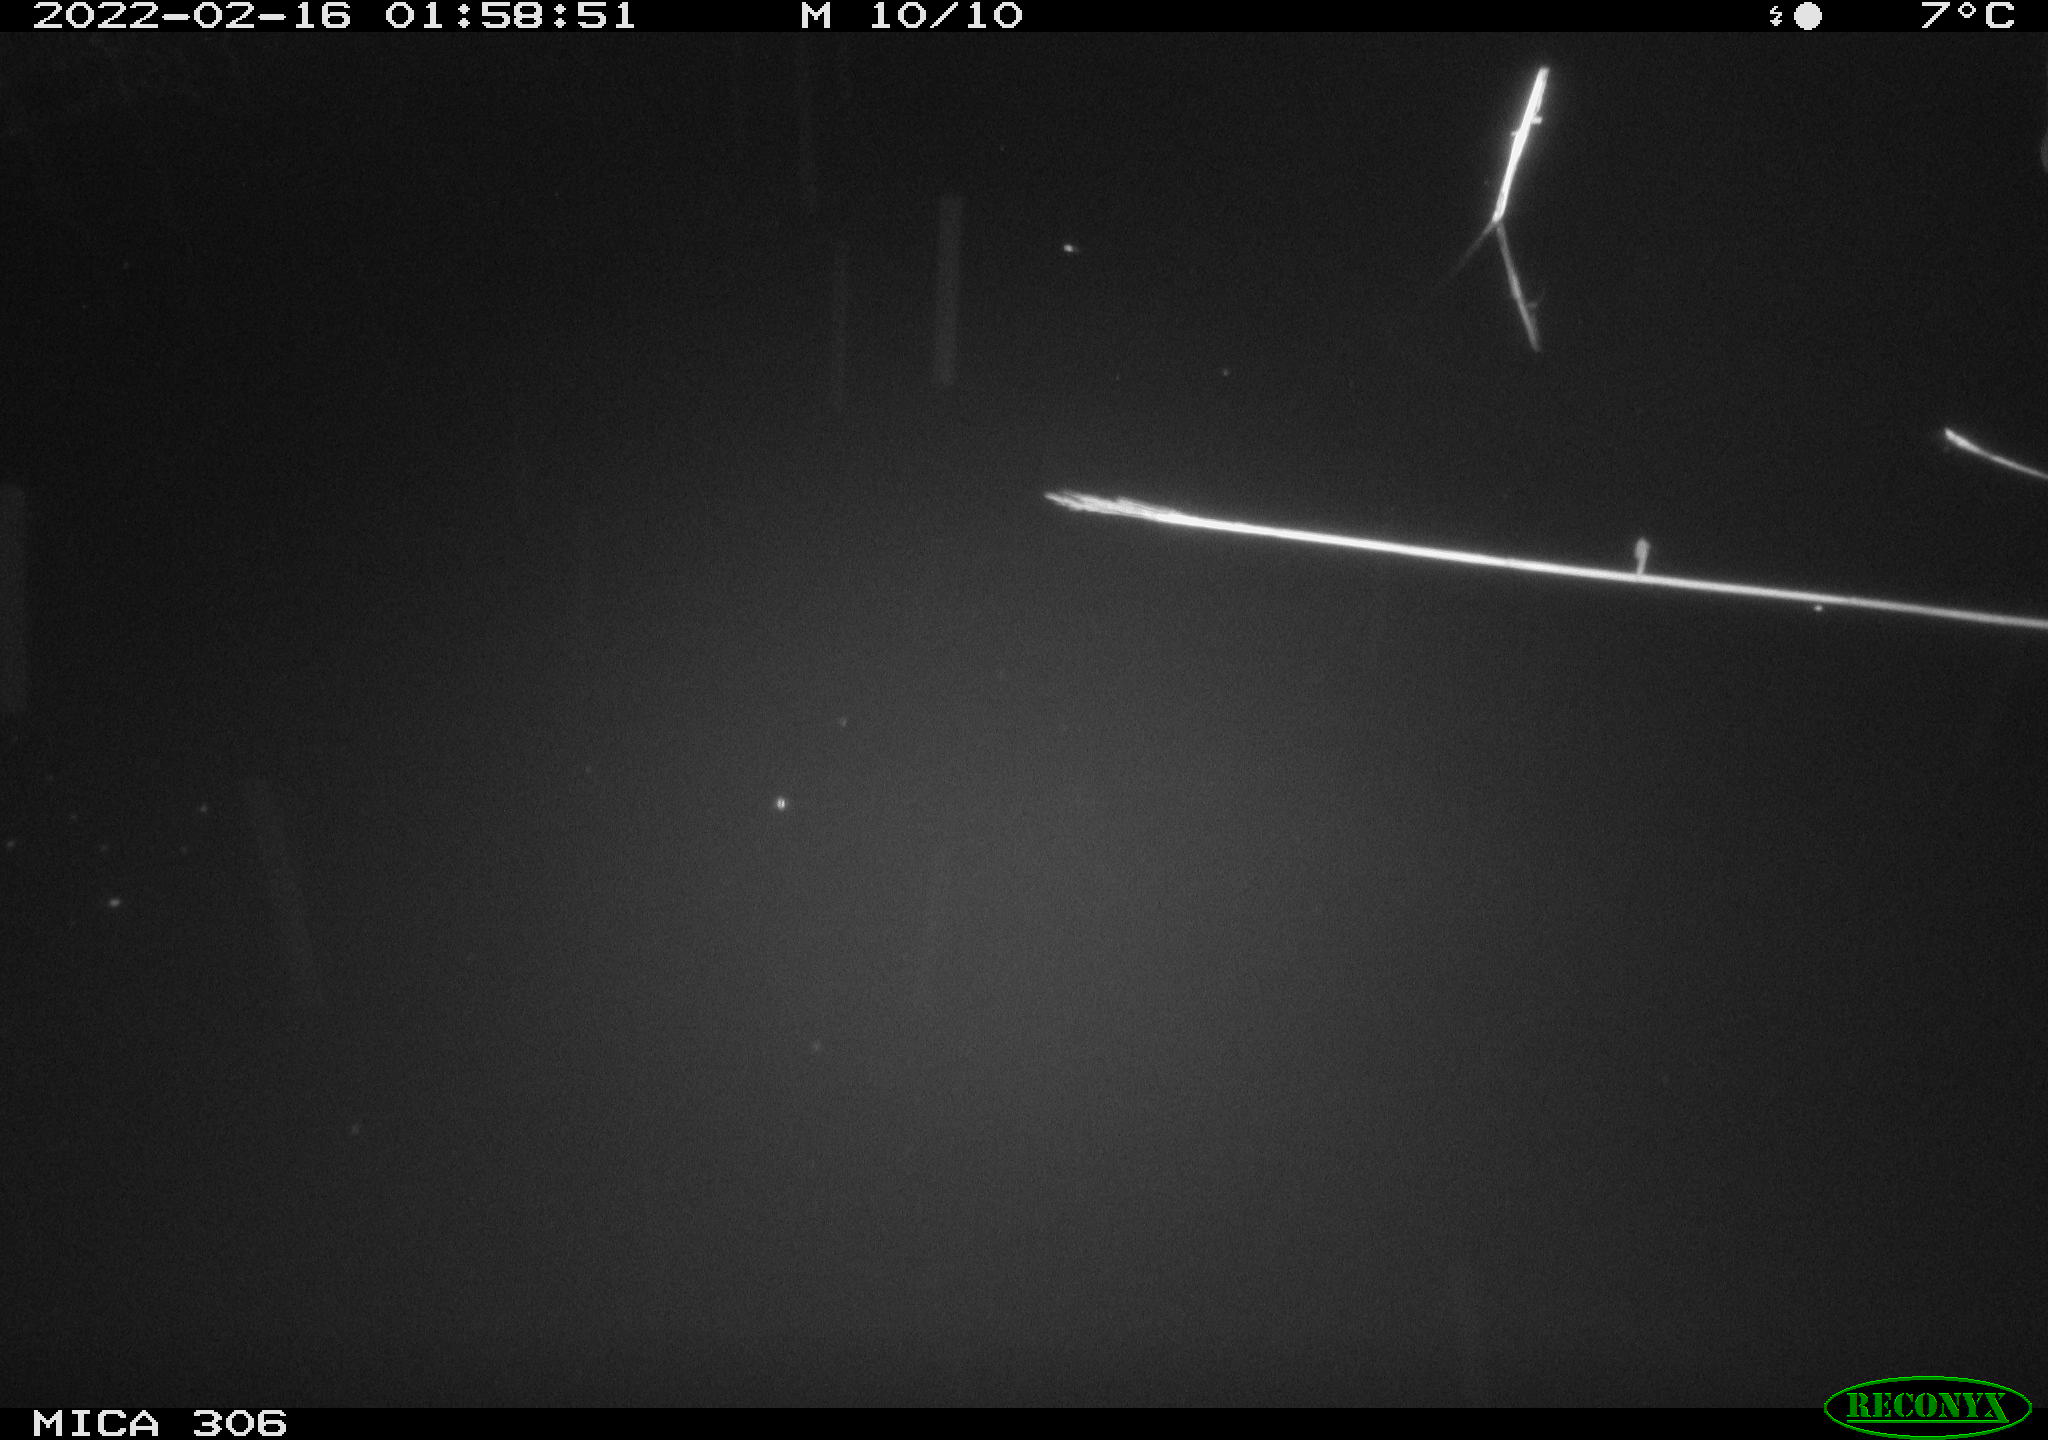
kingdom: Animalia
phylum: Chordata
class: Mammalia
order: Rodentia
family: Cricetidae
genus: Ondatra
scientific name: Ondatra zibethicus
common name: Muskrat
